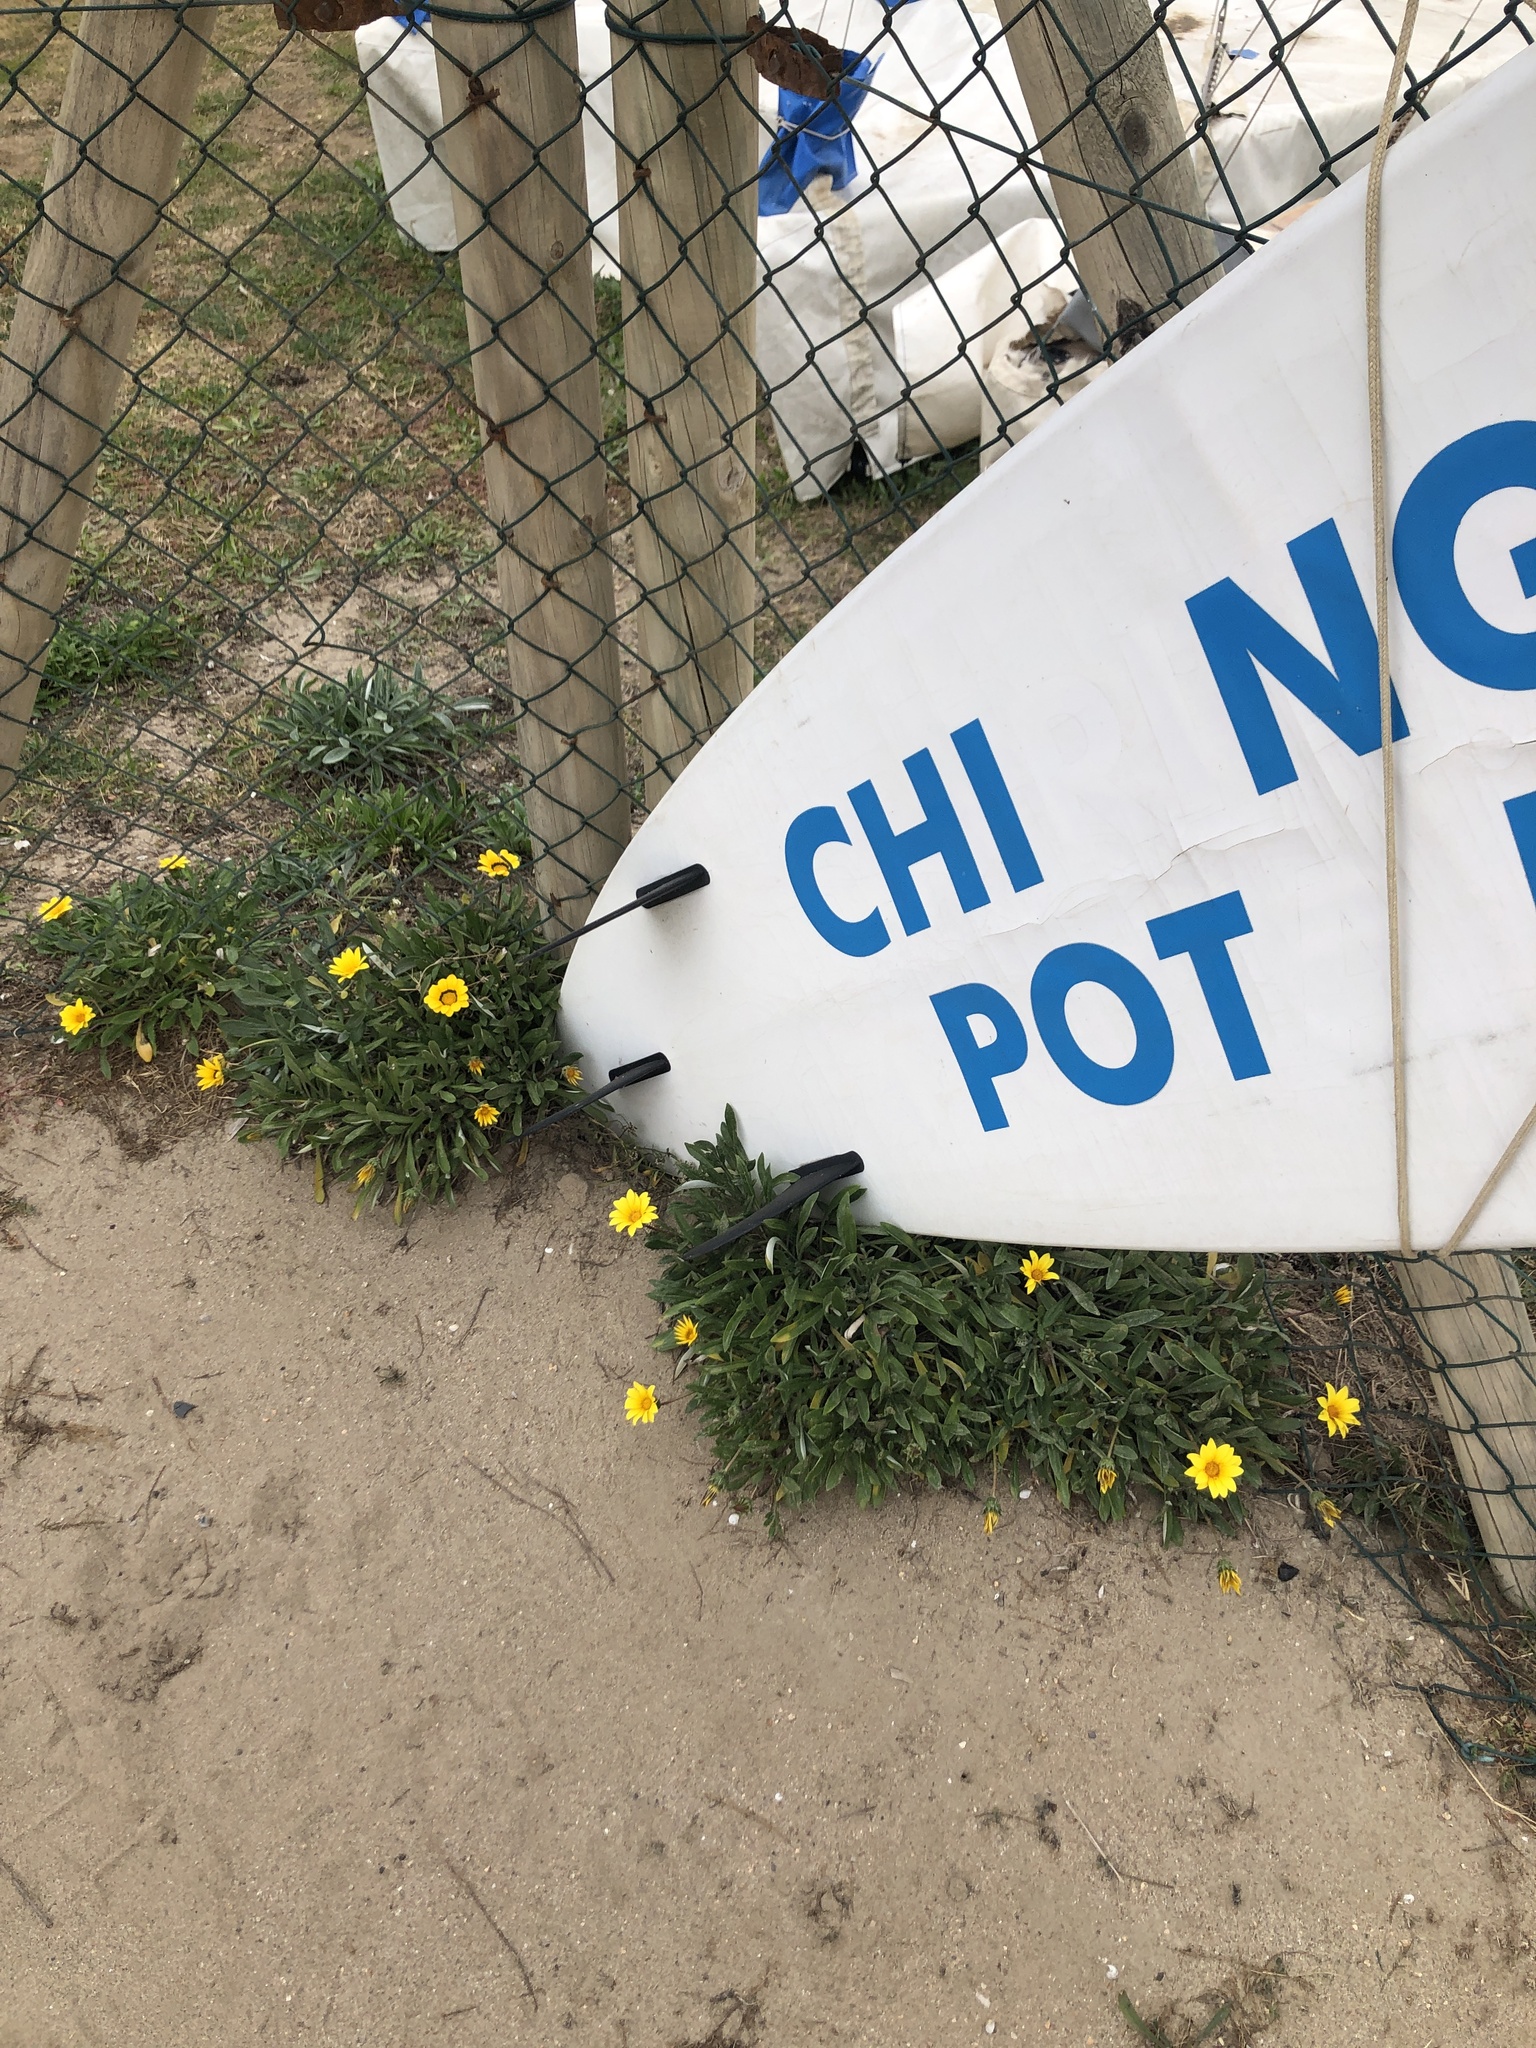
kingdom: Plantae
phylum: Tracheophyta
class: Magnoliopsida
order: Asterales
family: Asteraceae
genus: Gazania
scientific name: Gazania rigens
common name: Treasureflower
